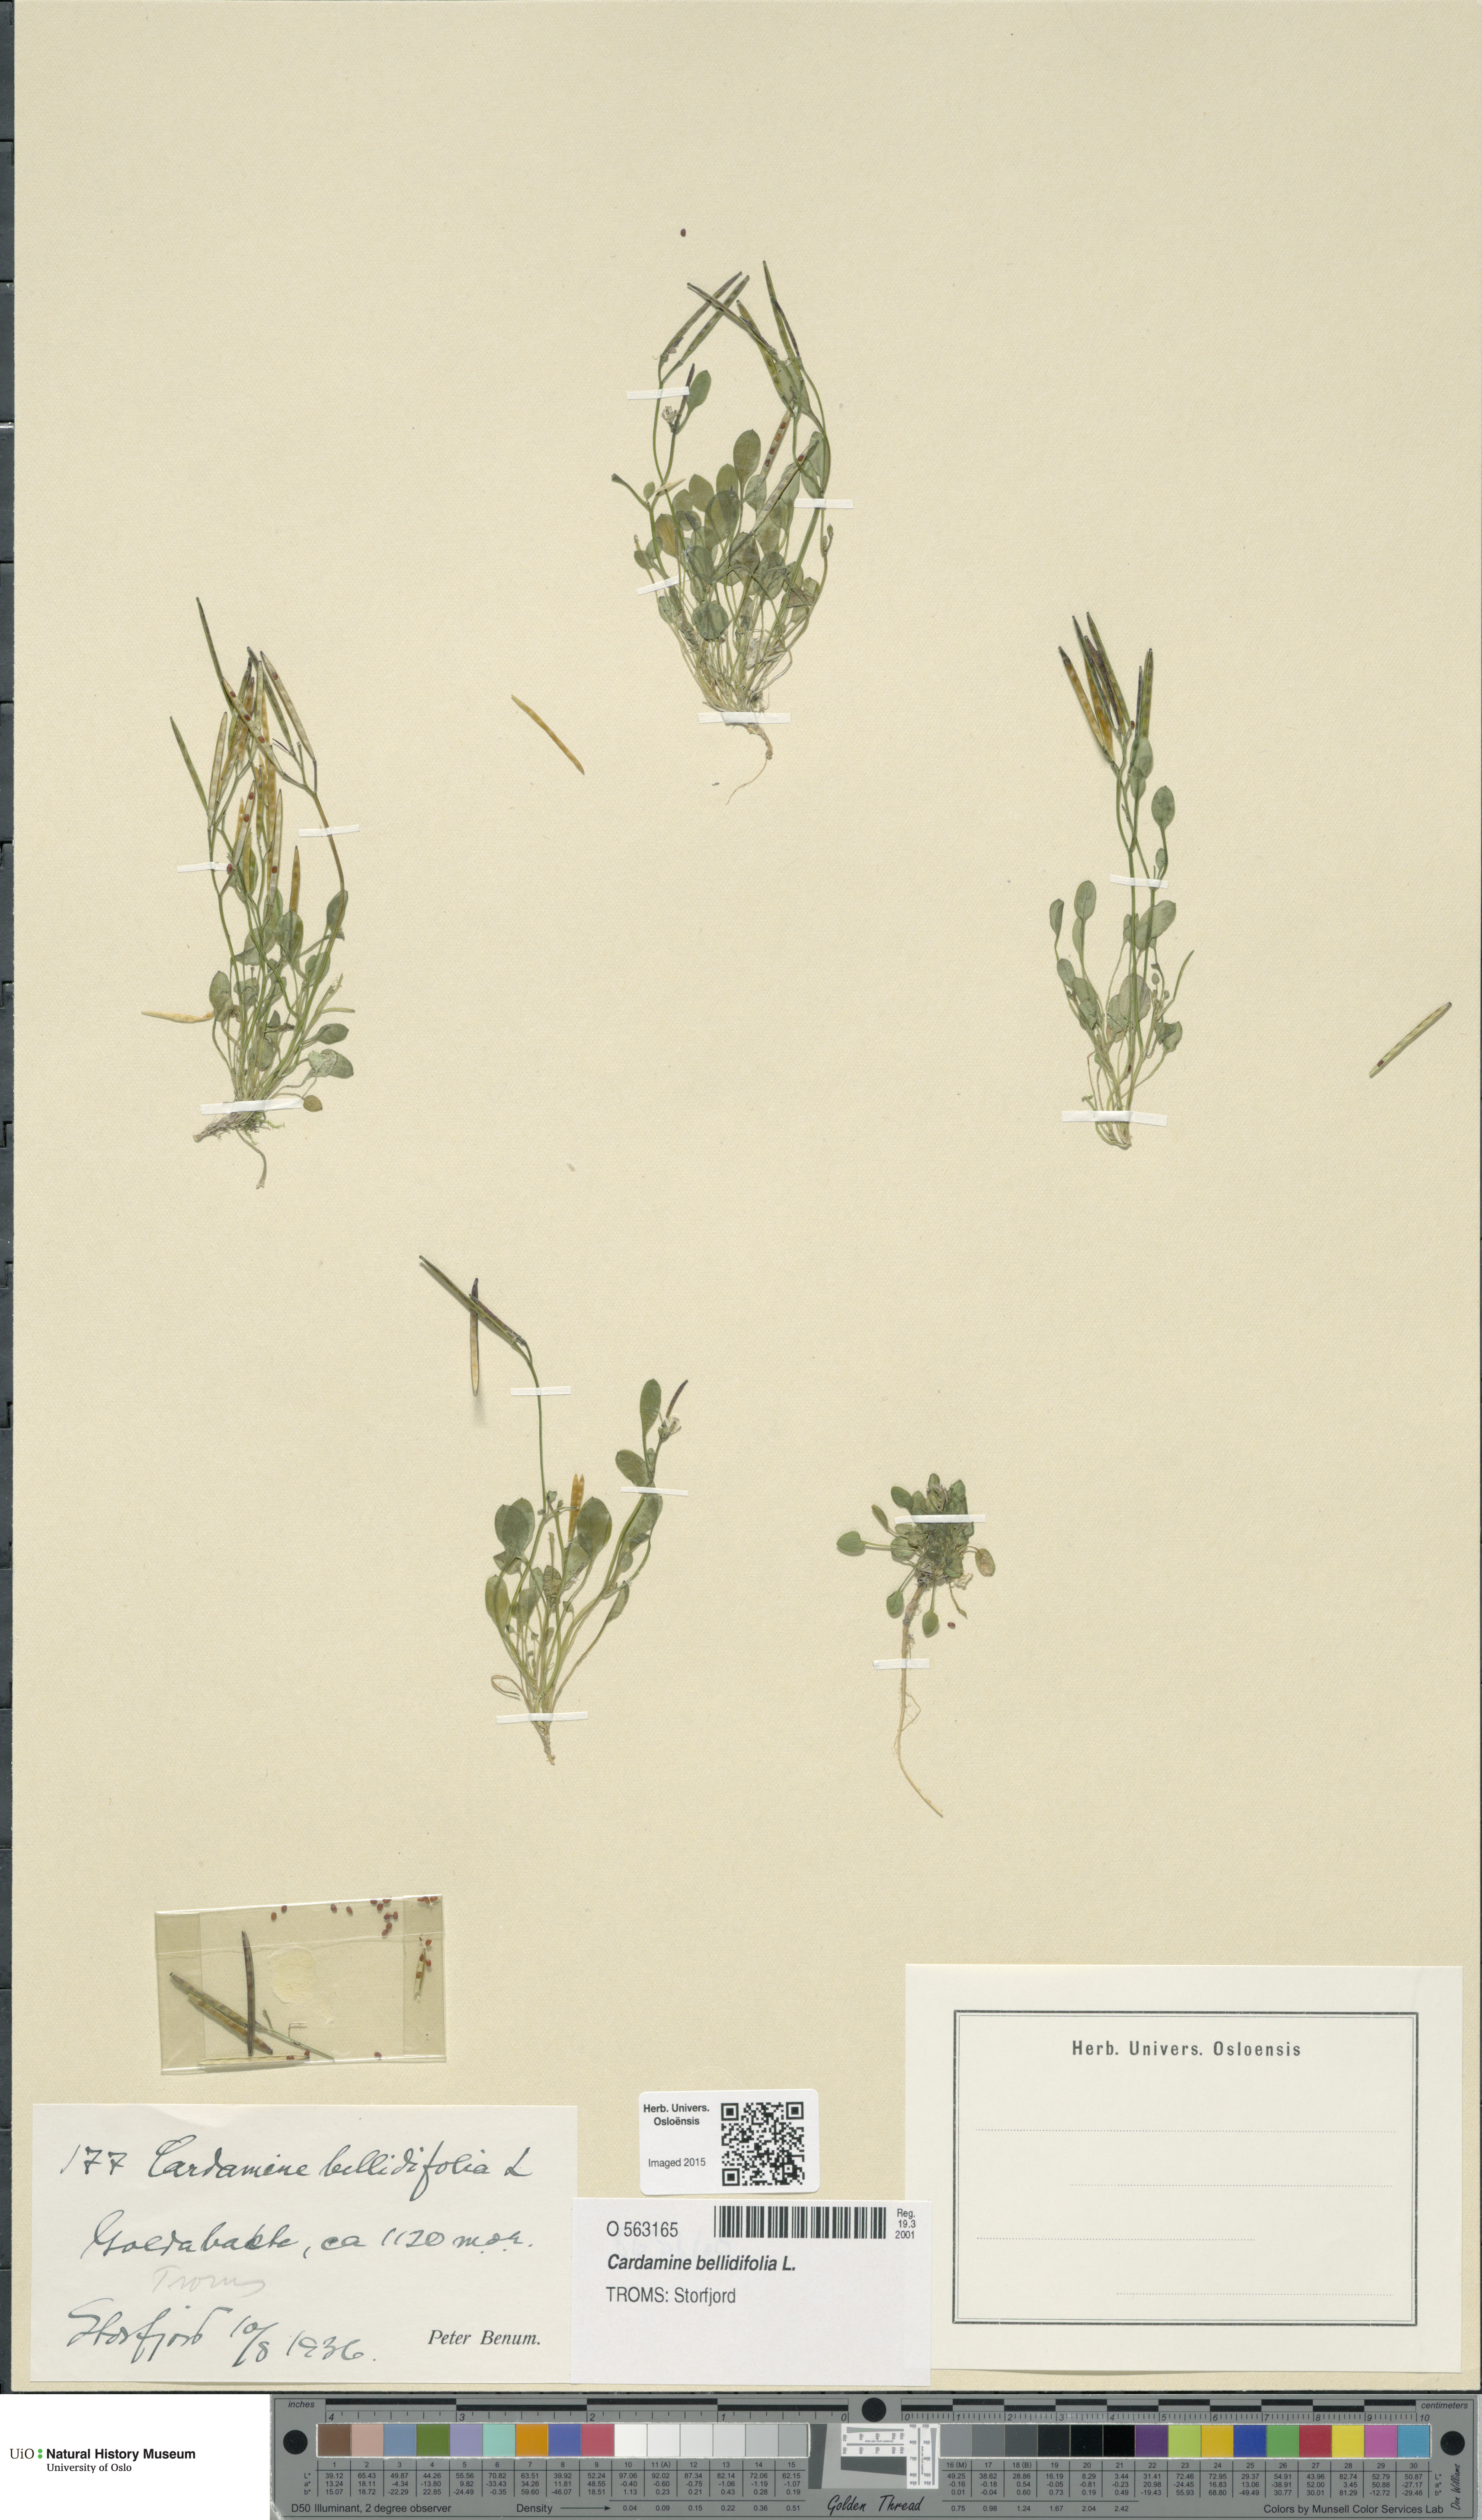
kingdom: Plantae
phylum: Tracheophyta
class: Magnoliopsida
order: Brassicales
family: Brassicaceae
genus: Cardamine
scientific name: Cardamine bellidifolia
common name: Alpine bittercress
